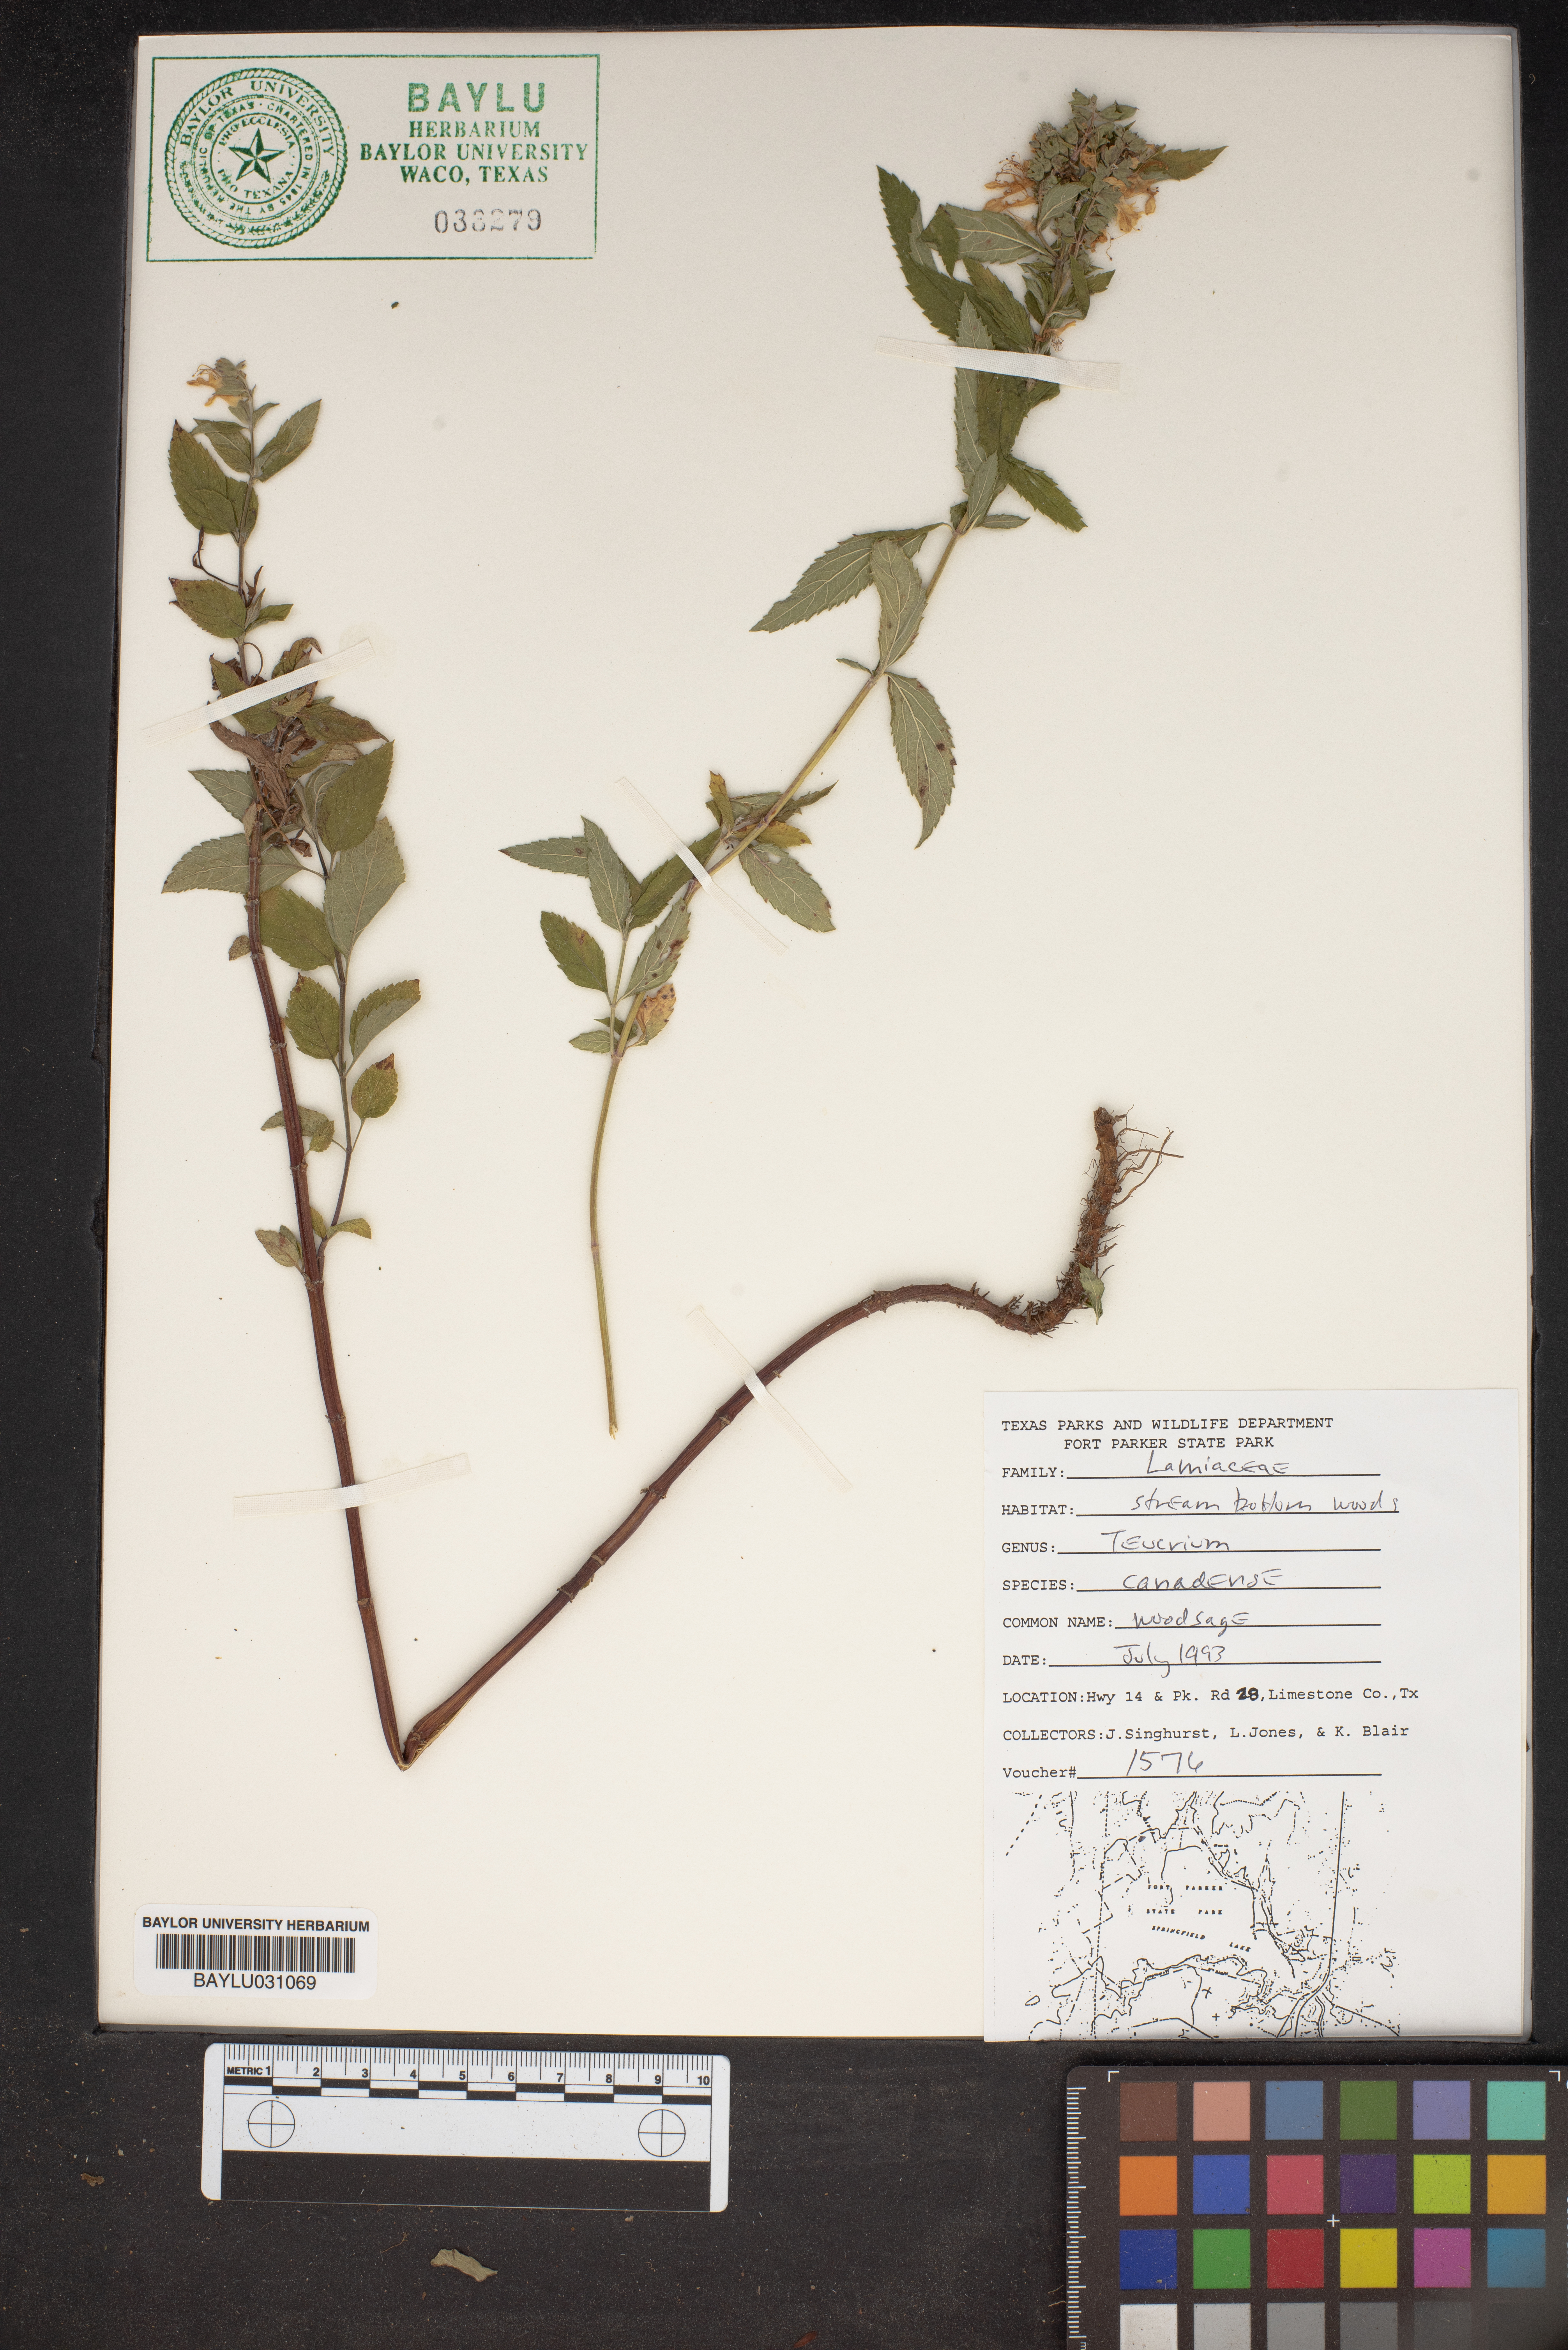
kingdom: Plantae
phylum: Tracheophyta
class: Magnoliopsida
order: Lamiales
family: Lamiaceae
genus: Teucrium
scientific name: Teucrium canadense
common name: American germander
